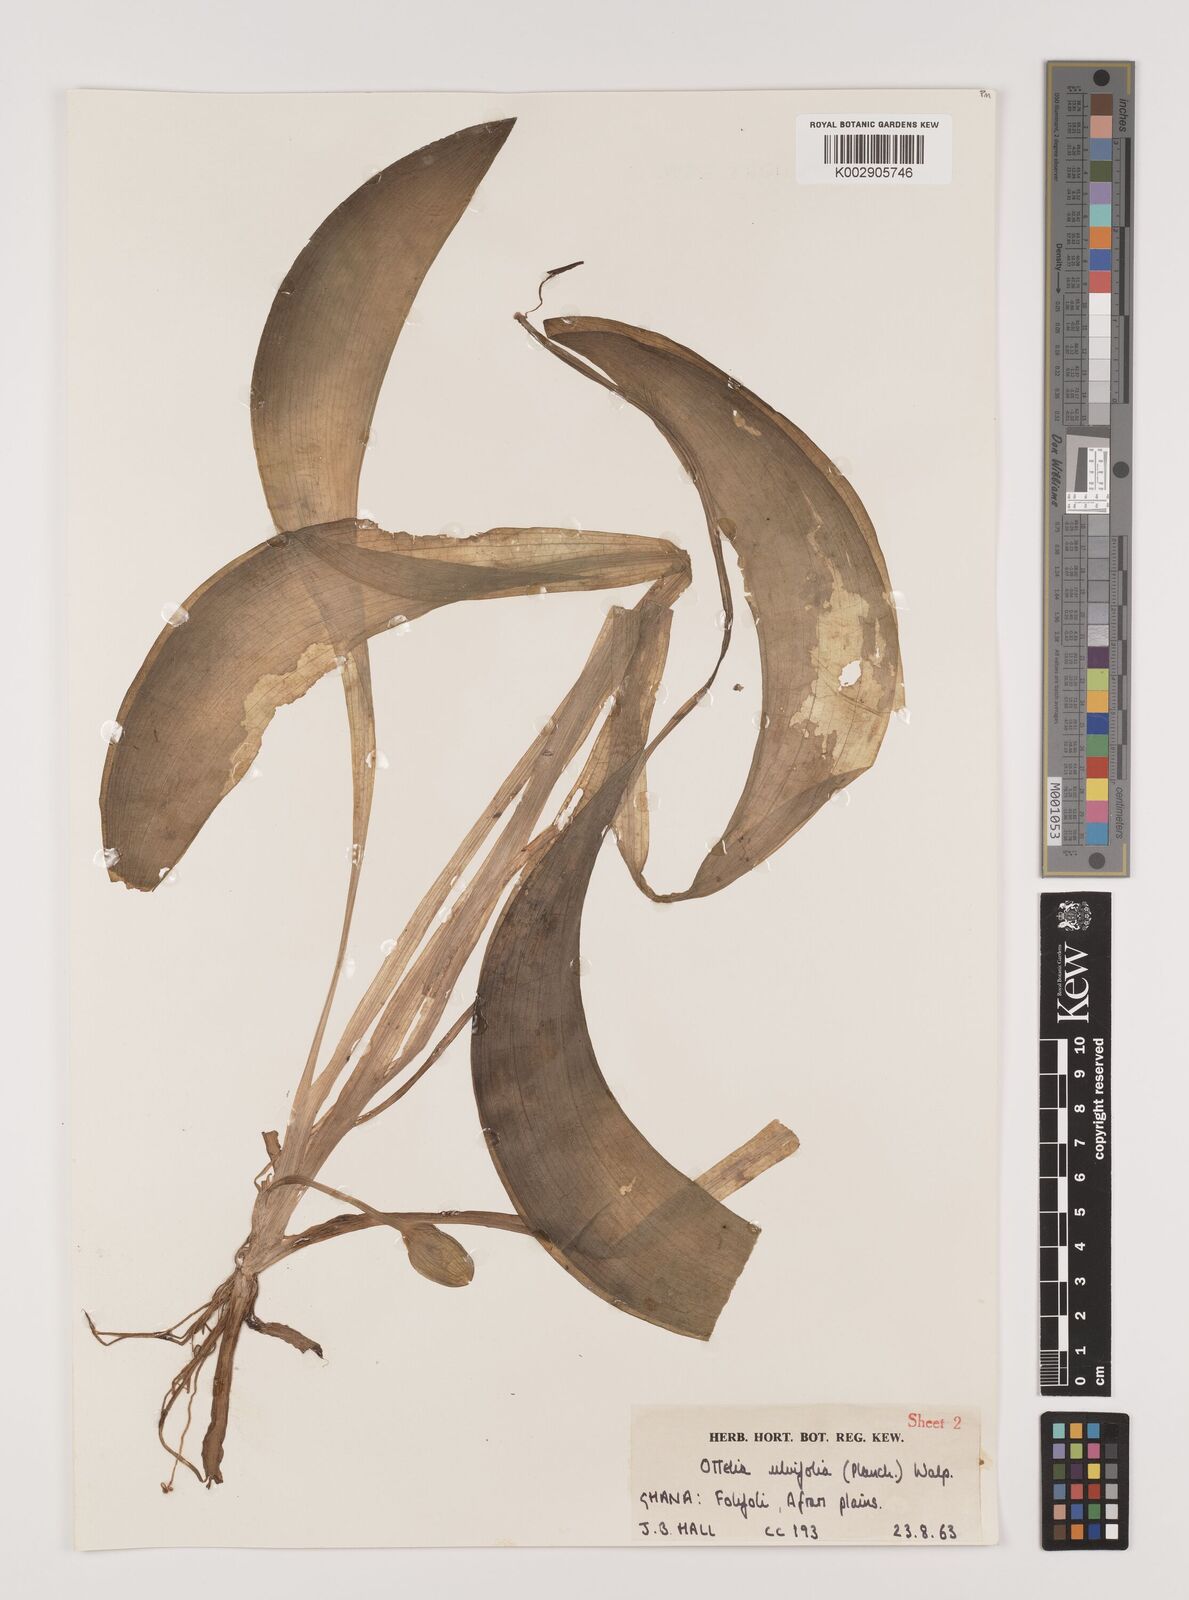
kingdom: Plantae
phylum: Tracheophyta
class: Liliopsida
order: Alismatales
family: Hydrocharitaceae
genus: Ottelia
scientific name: Ottelia ulvifolia
